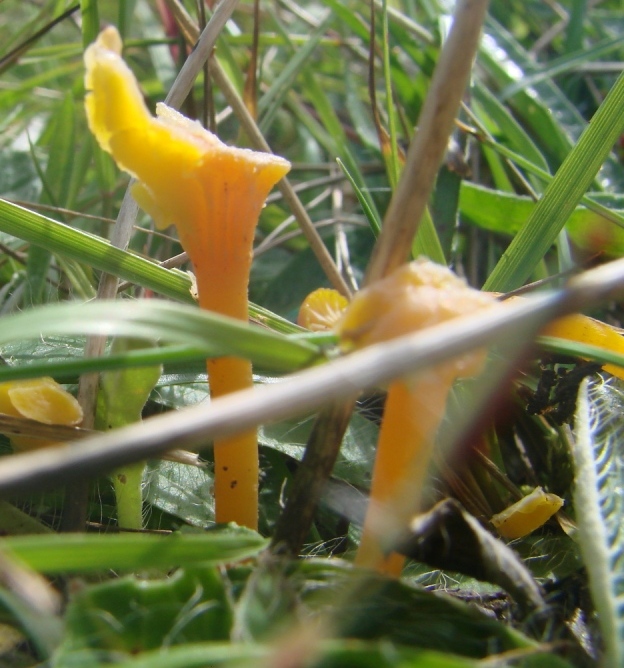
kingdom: Fungi
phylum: Basidiomycota
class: Agaricomycetes
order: Agaricales
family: Hygrophoraceae
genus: Hygrocybe
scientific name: Hygrocybe cantharellus
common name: kantarel-vokshat
